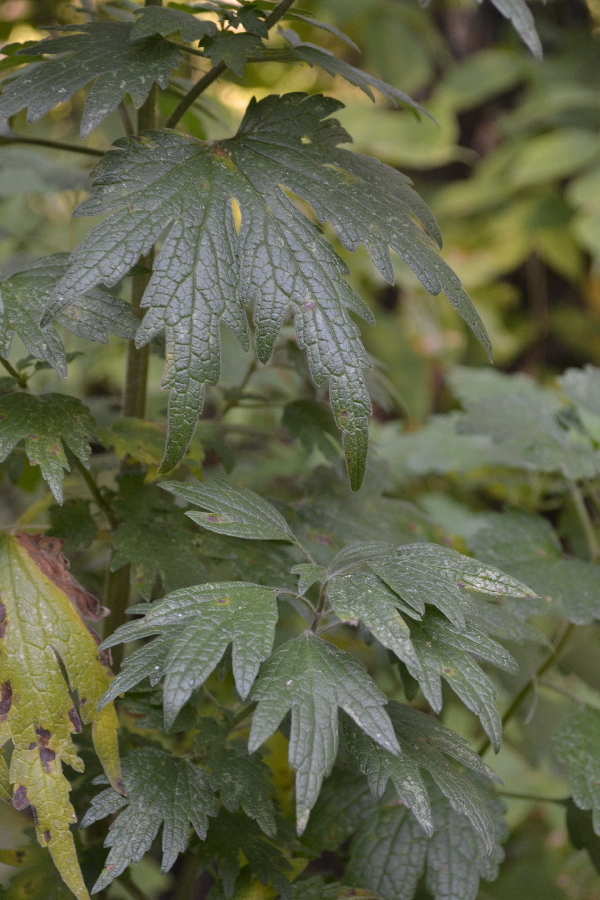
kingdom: Plantae
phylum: Tracheophyta
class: Magnoliopsida
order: Lamiales
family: Lamiaceae
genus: Leonurus
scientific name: Leonurus quinquelobatus
